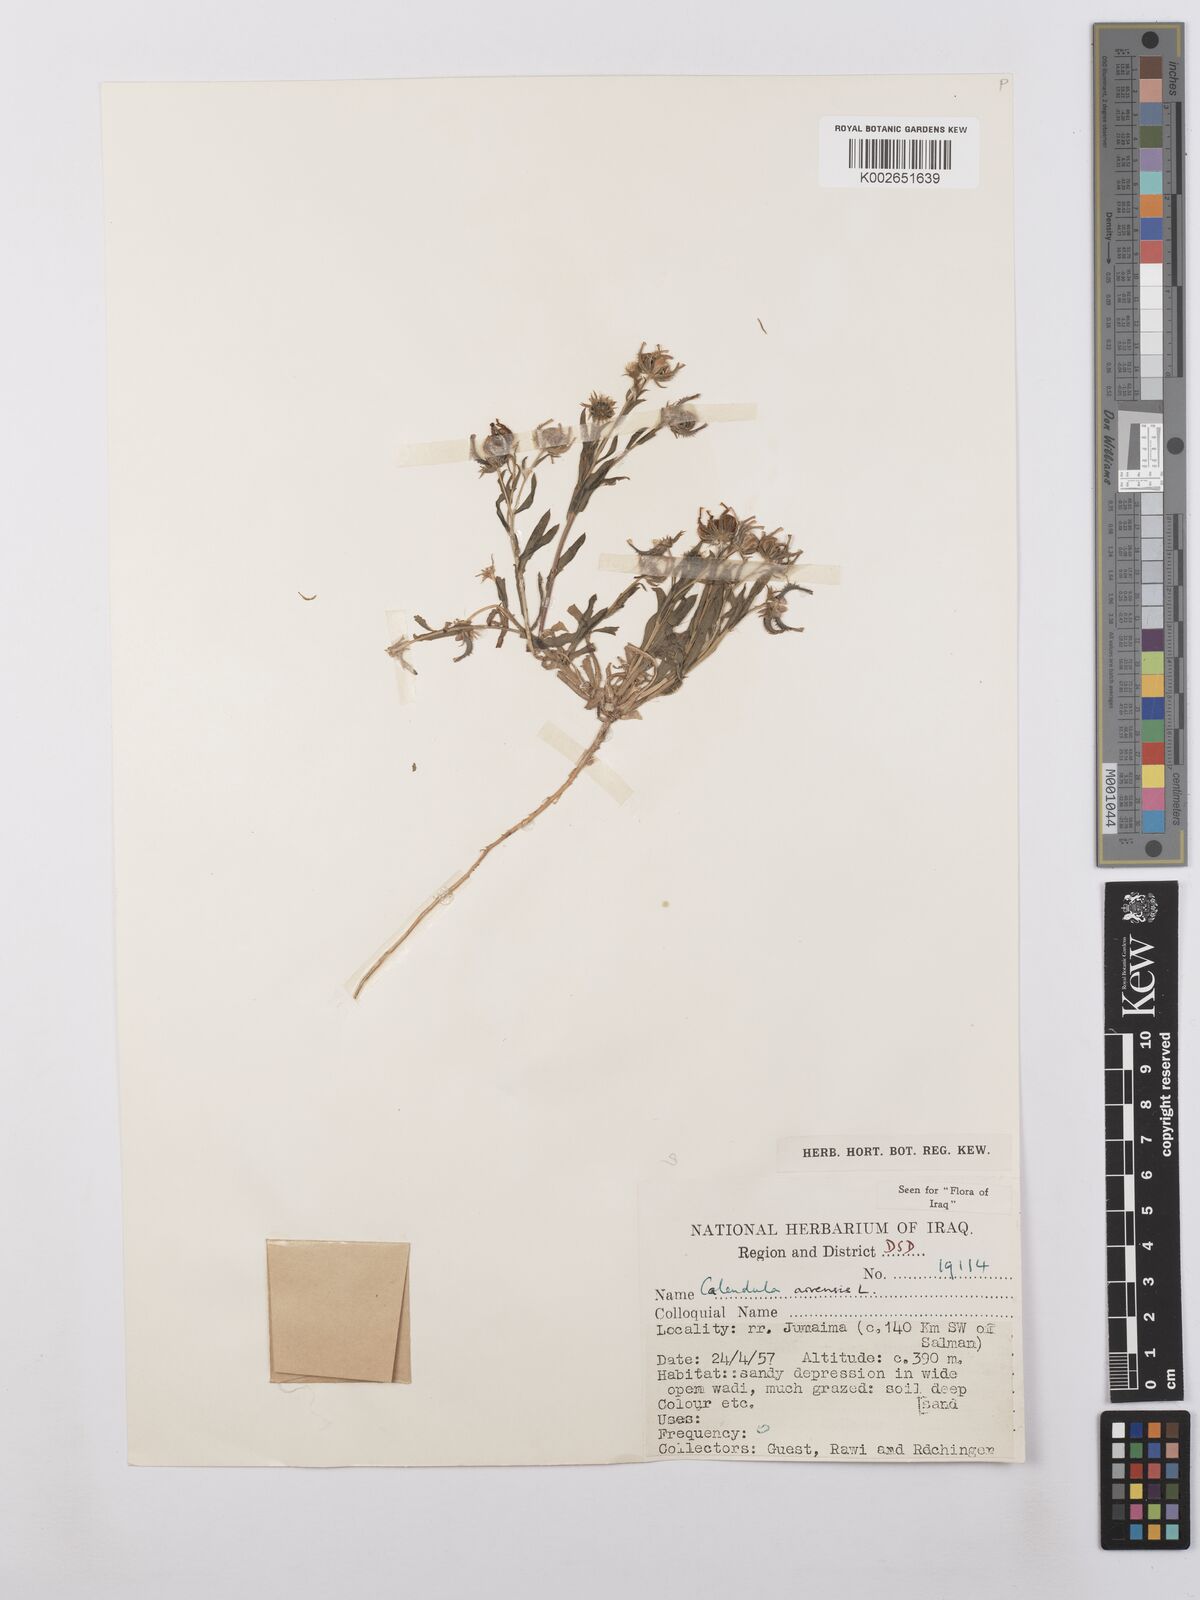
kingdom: Plantae
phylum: Tracheophyta
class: Magnoliopsida
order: Asterales
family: Asteraceae
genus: Calendula
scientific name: Calendula arvensis
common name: Field marigold
